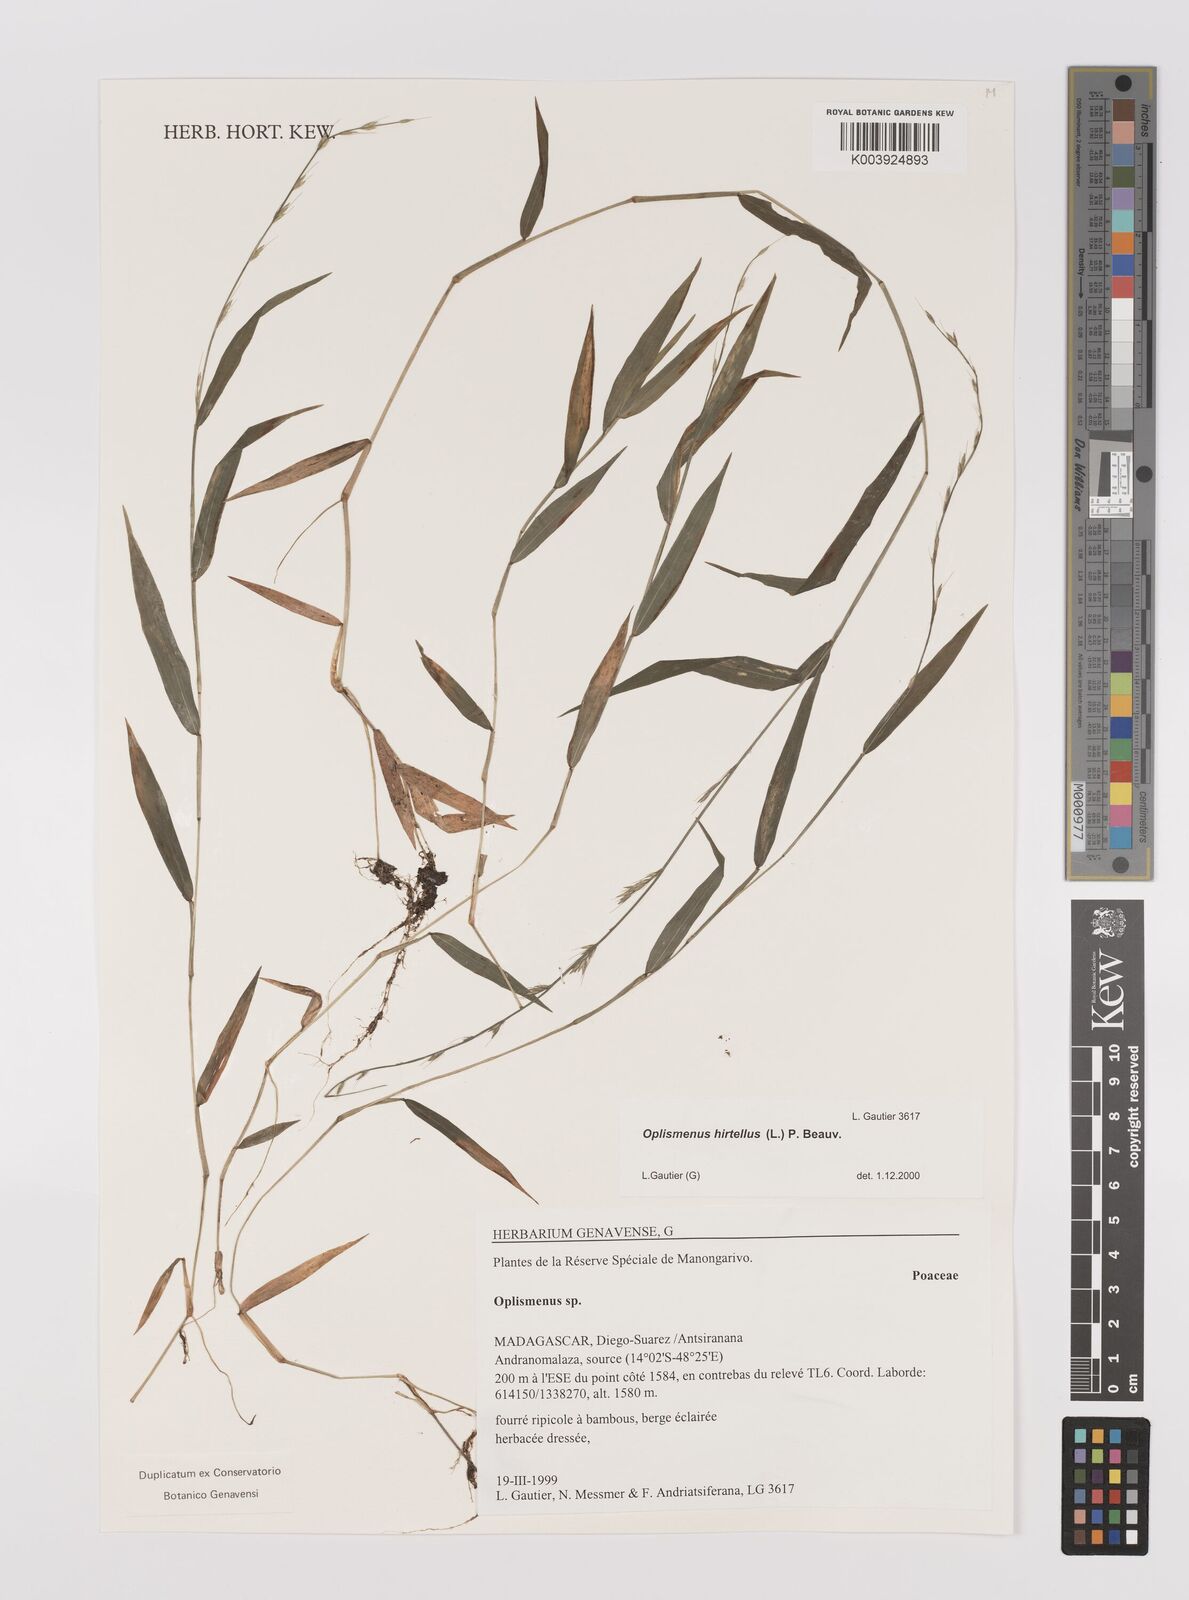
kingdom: Plantae
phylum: Tracheophyta
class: Liliopsida
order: Poales
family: Poaceae
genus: Oplismenus
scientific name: Oplismenus hirtellus
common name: Basketgrass
